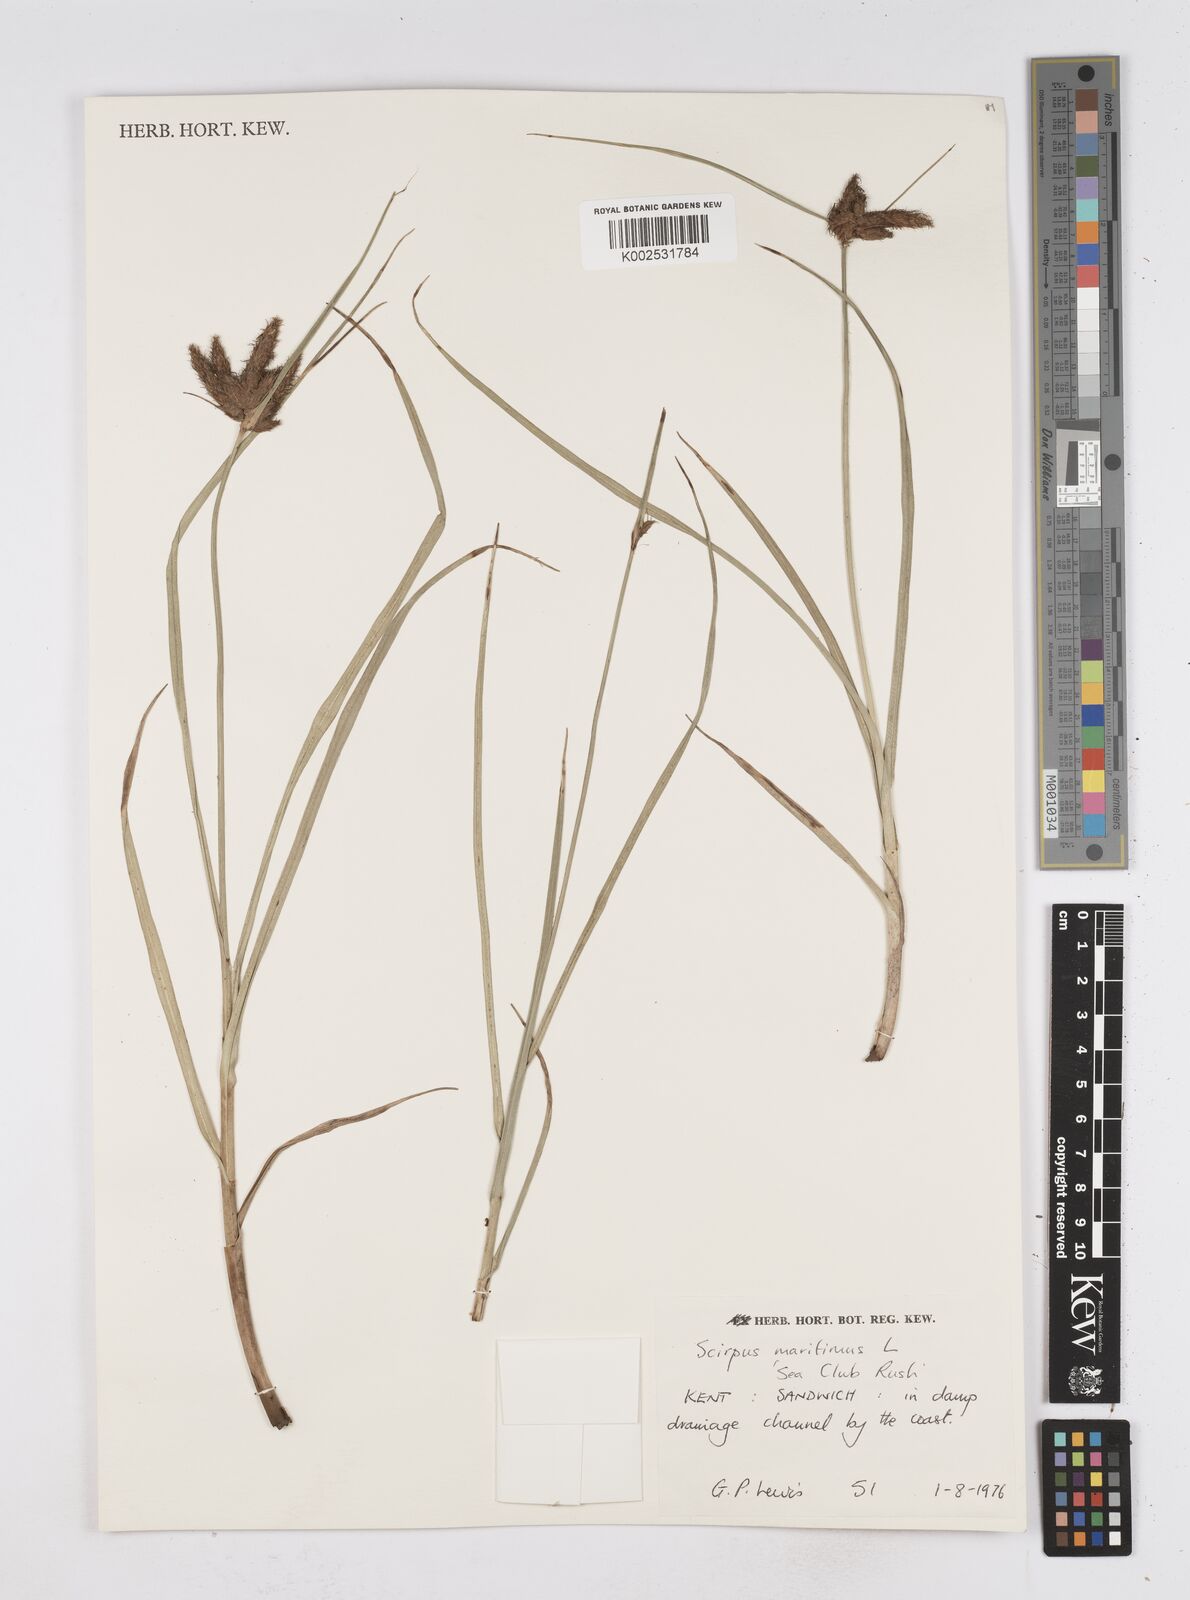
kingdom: Plantae
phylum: Tracheophyta
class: Liliopsida
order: Poales
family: Cyperaceae
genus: Bolboschoenus
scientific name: Bolboschoenus maritimus
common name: Sea club-rush
